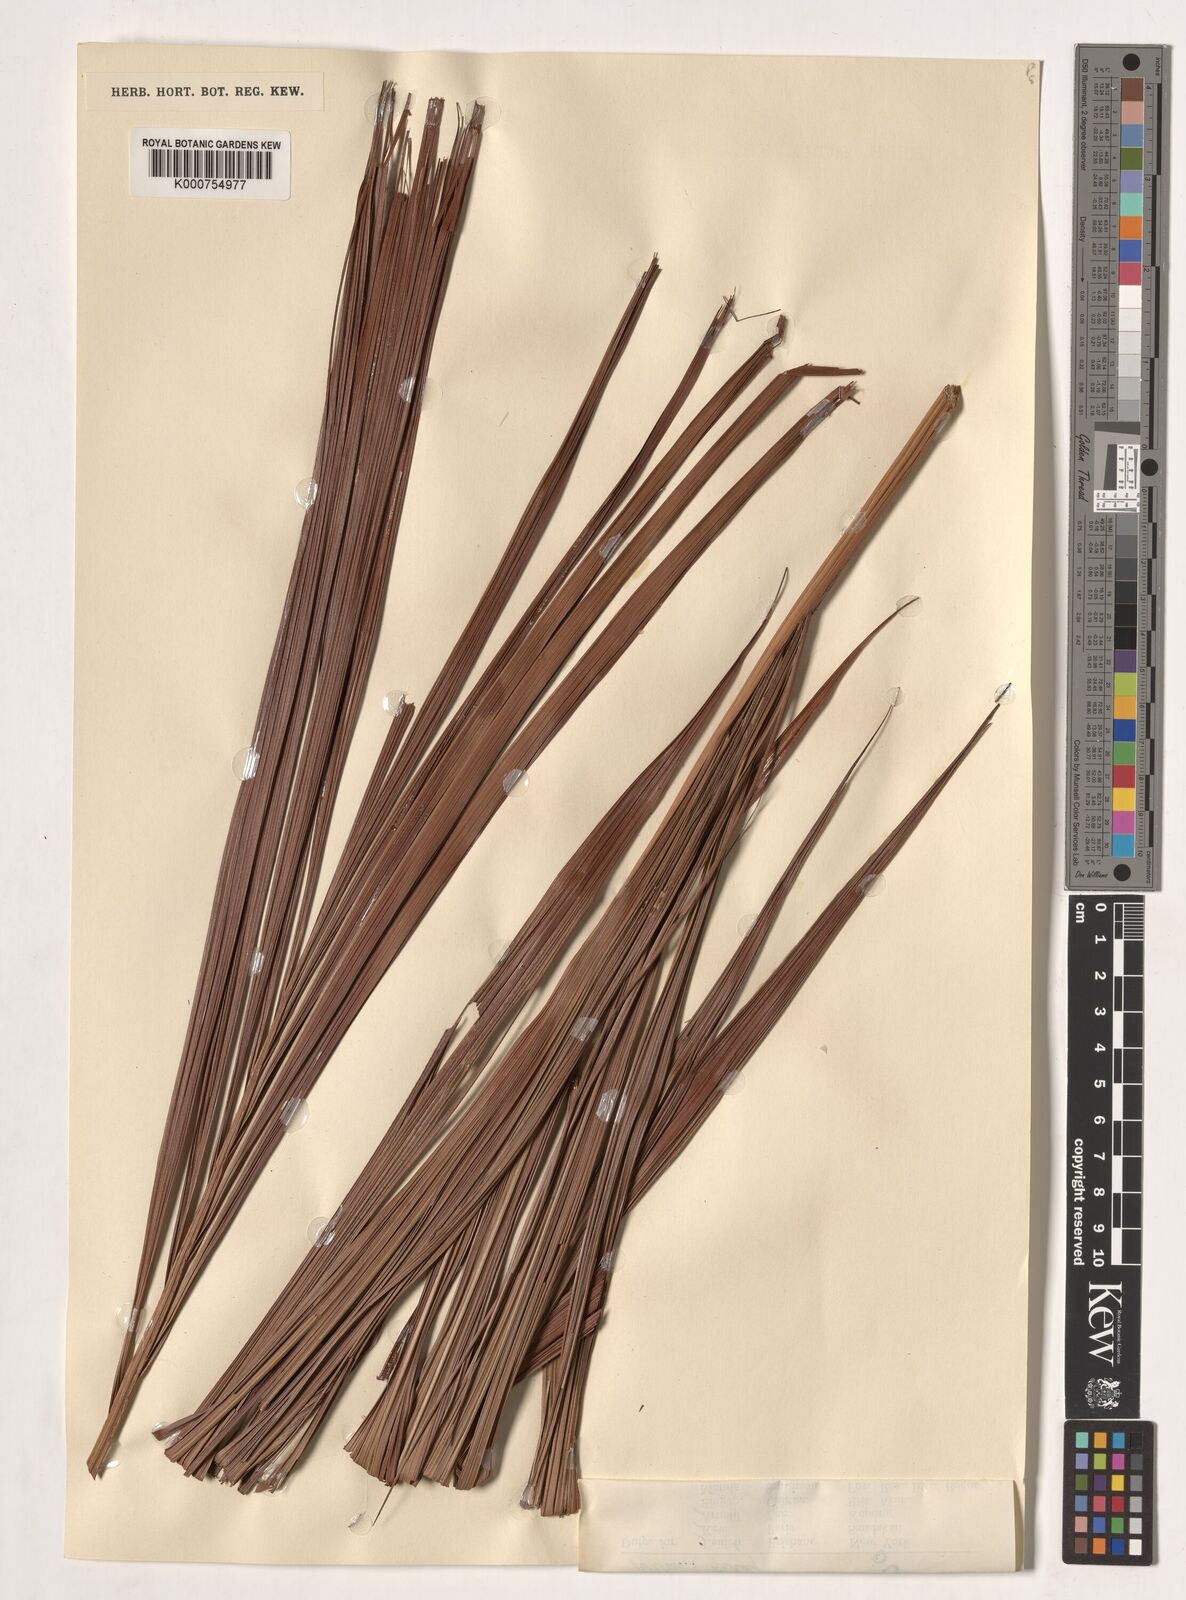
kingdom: Plantae
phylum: Tracheophyta
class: Liliopsida
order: Arecales
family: Arecaceae
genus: Metroxylon
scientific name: Metroxylon sagu
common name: Sago palm
